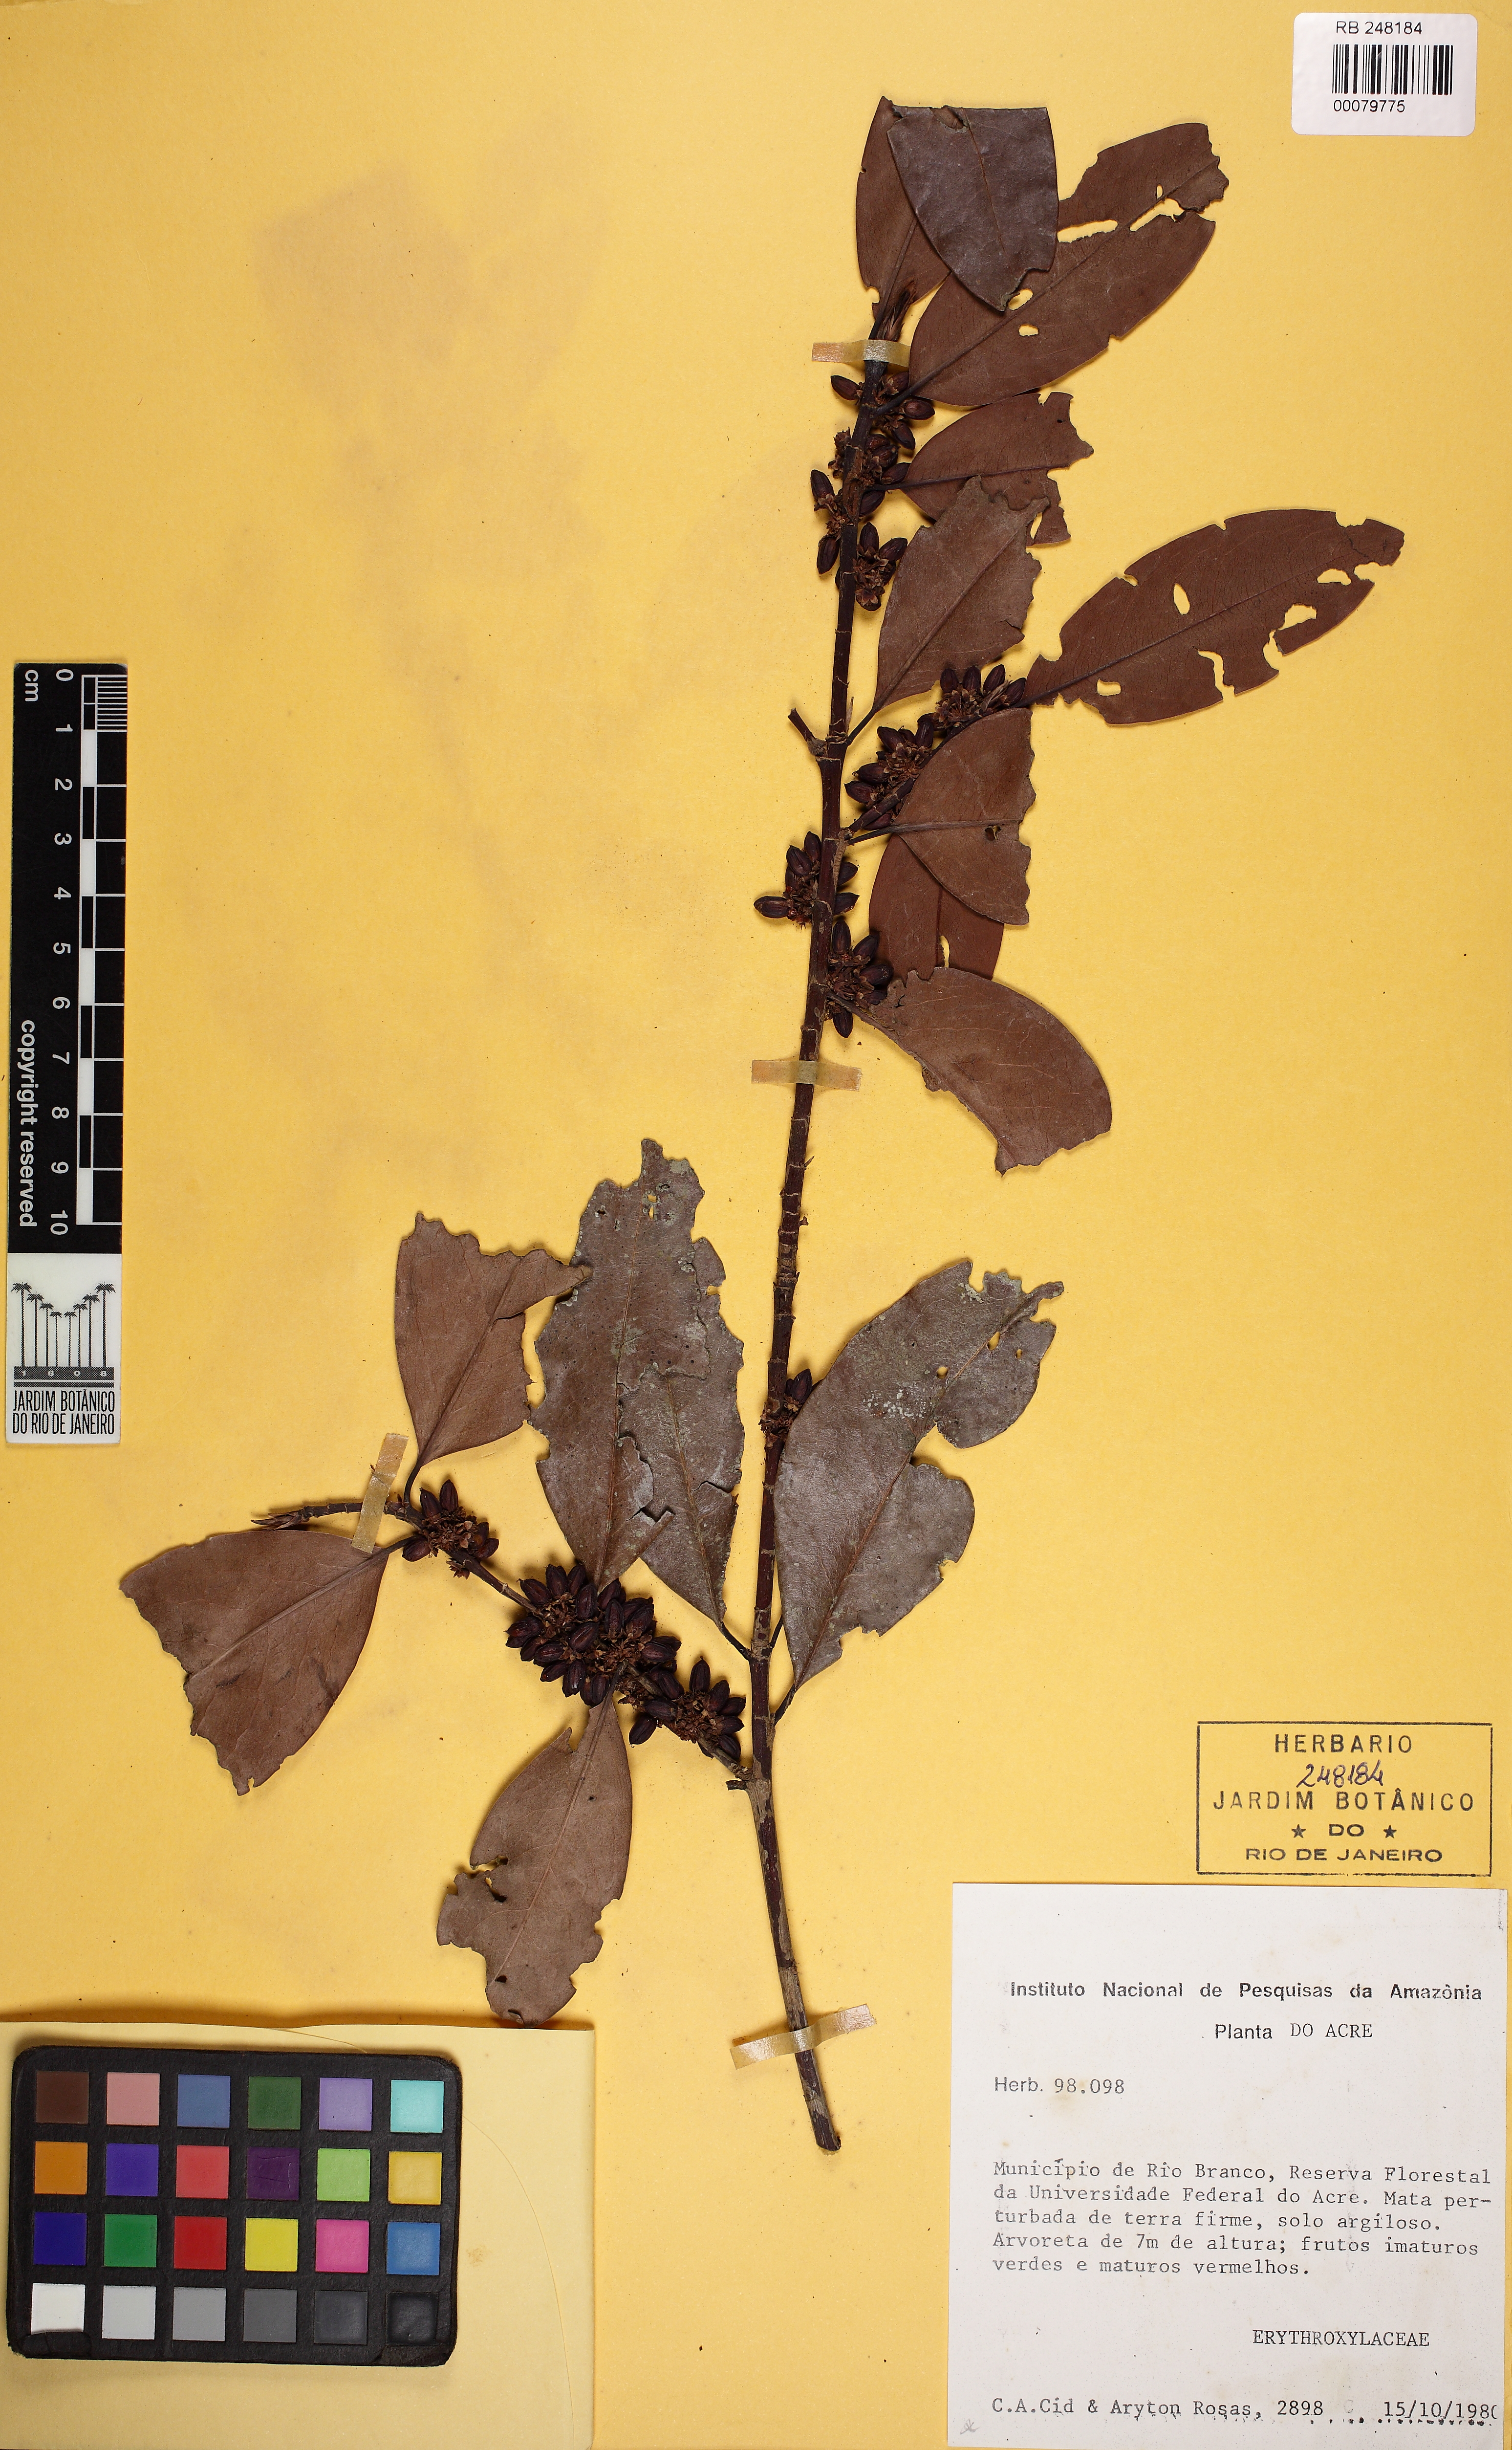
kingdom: Plantae
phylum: Tracheophyta
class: Magnoliopsida
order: Malpighiales
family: Erythroxylaceae
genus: Erythroxylum
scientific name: Erythroxylum macrophyllum
